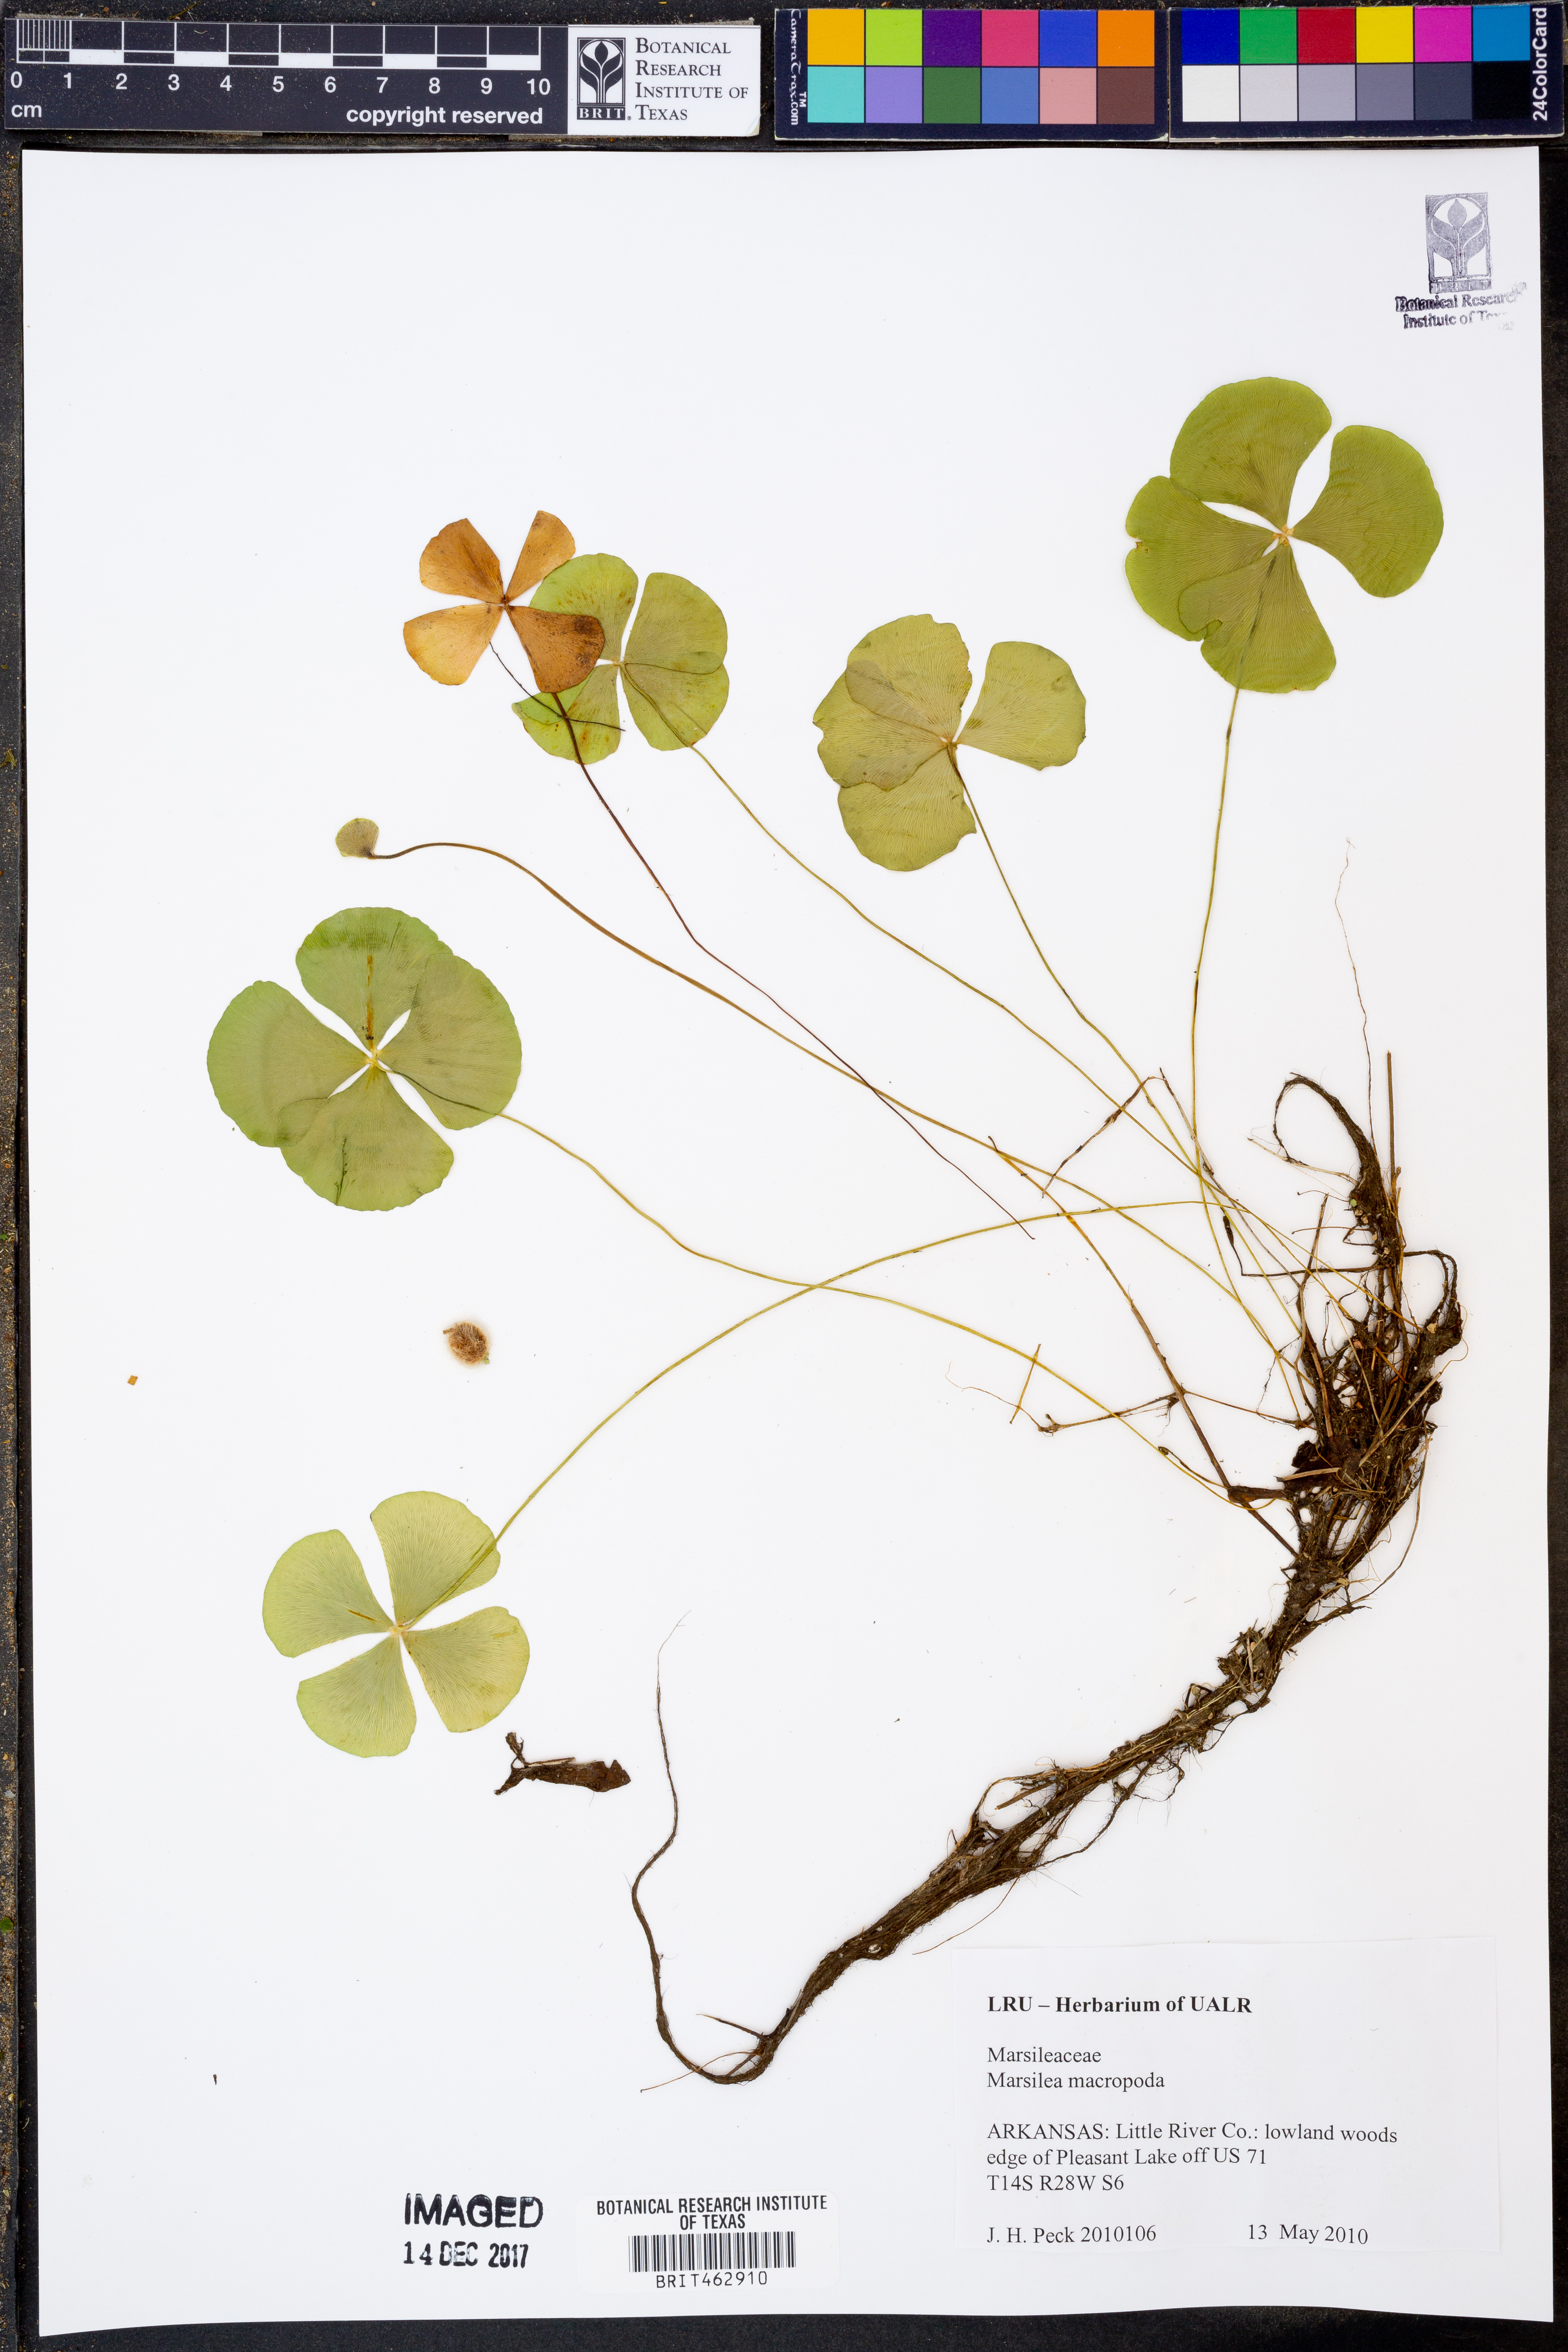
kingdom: Plantae
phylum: Tracheophyta
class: Polypodiopsida
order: Salviniales
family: Marsileaceae
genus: Marsilea
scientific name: Marsilea macropoda
